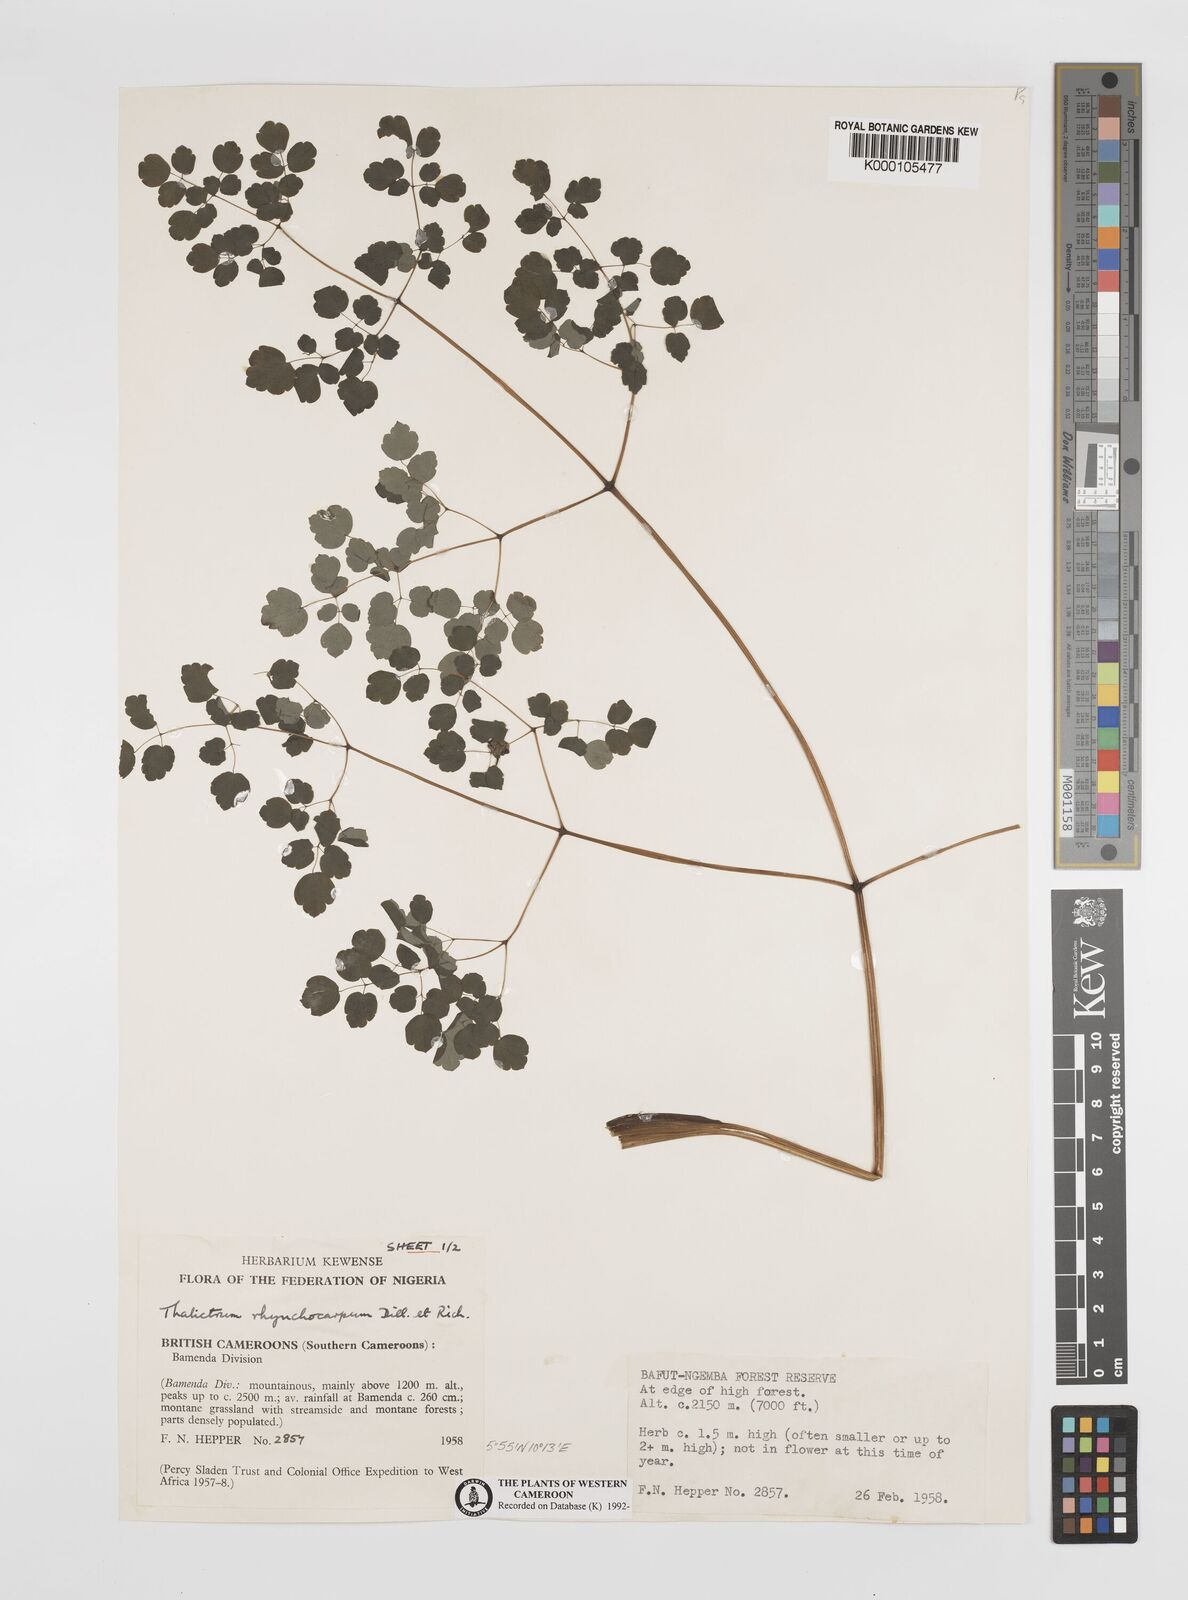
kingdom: Plantae
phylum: Tracheophyta
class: Magnoliopsida
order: Ranunculales
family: Ranunculaceae
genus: Thalictrum
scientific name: Thalictrum
